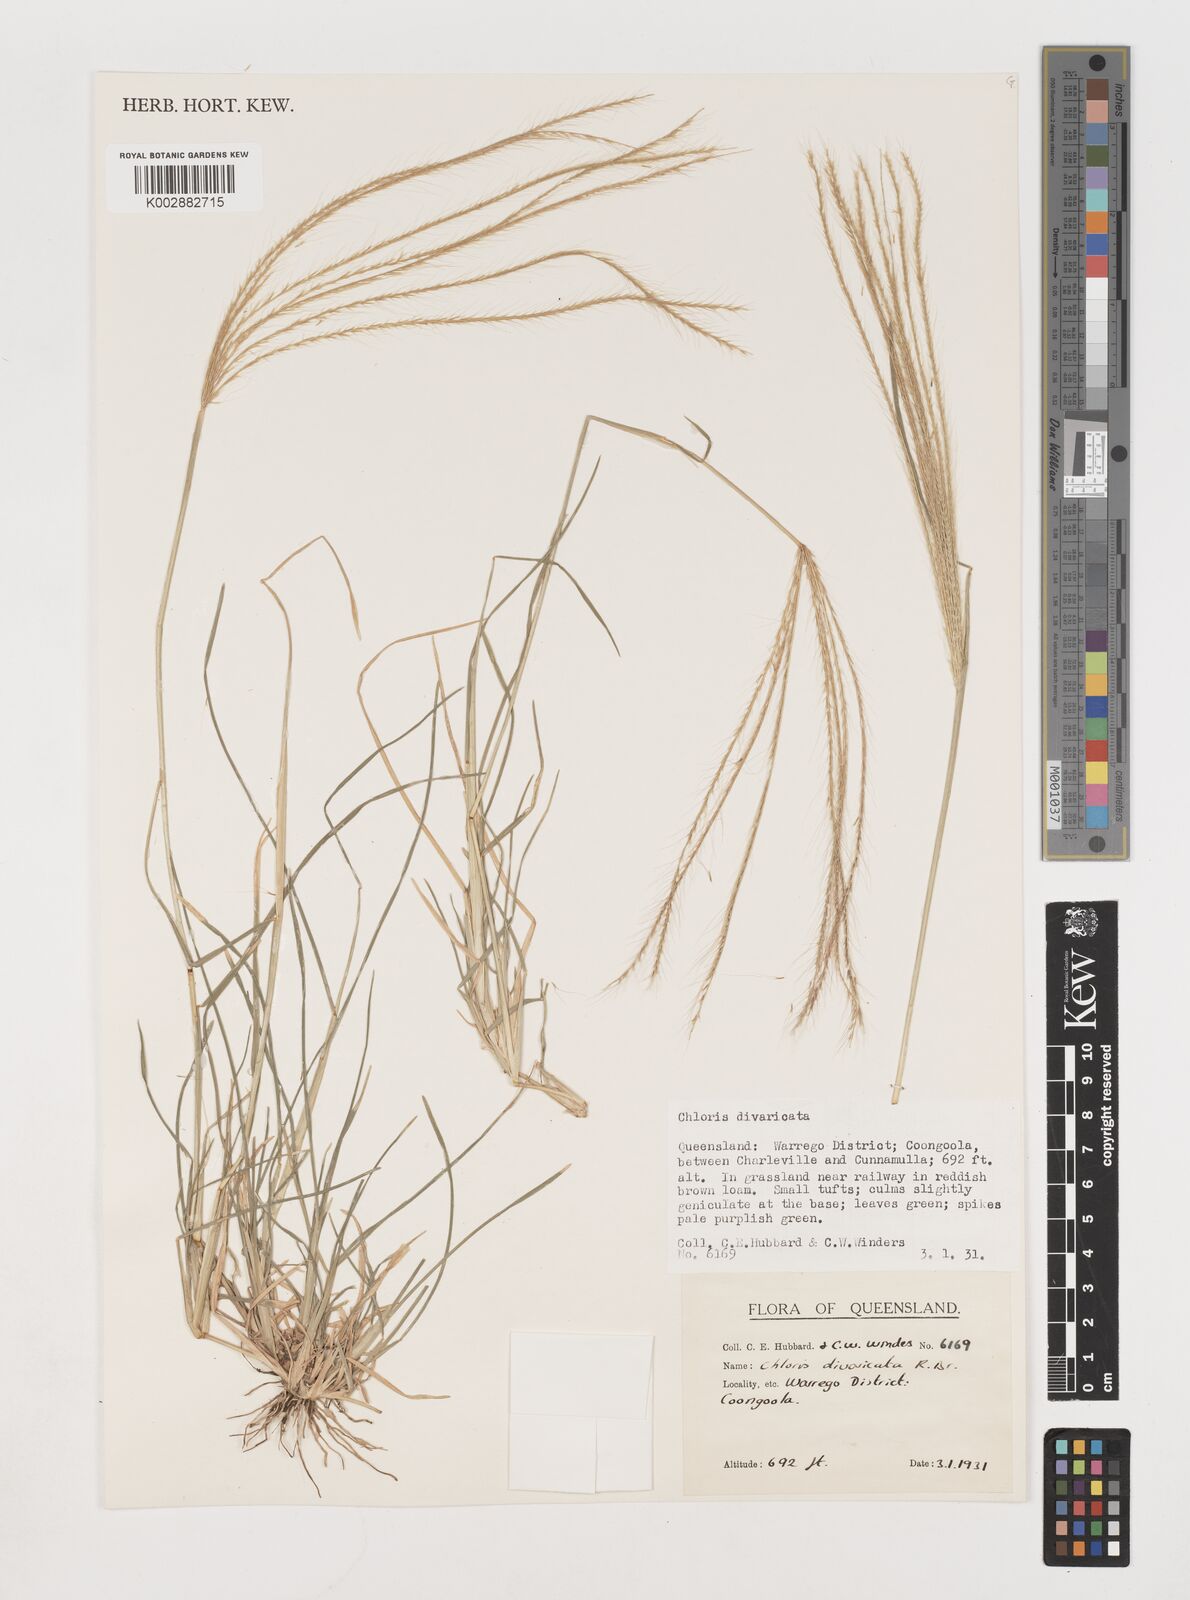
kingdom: Plantae
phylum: Tracheophyta
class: Liliopsida
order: Poales
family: Poaceae
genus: Chloris
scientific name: Chloris divaricata
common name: Spreading windmill grass
